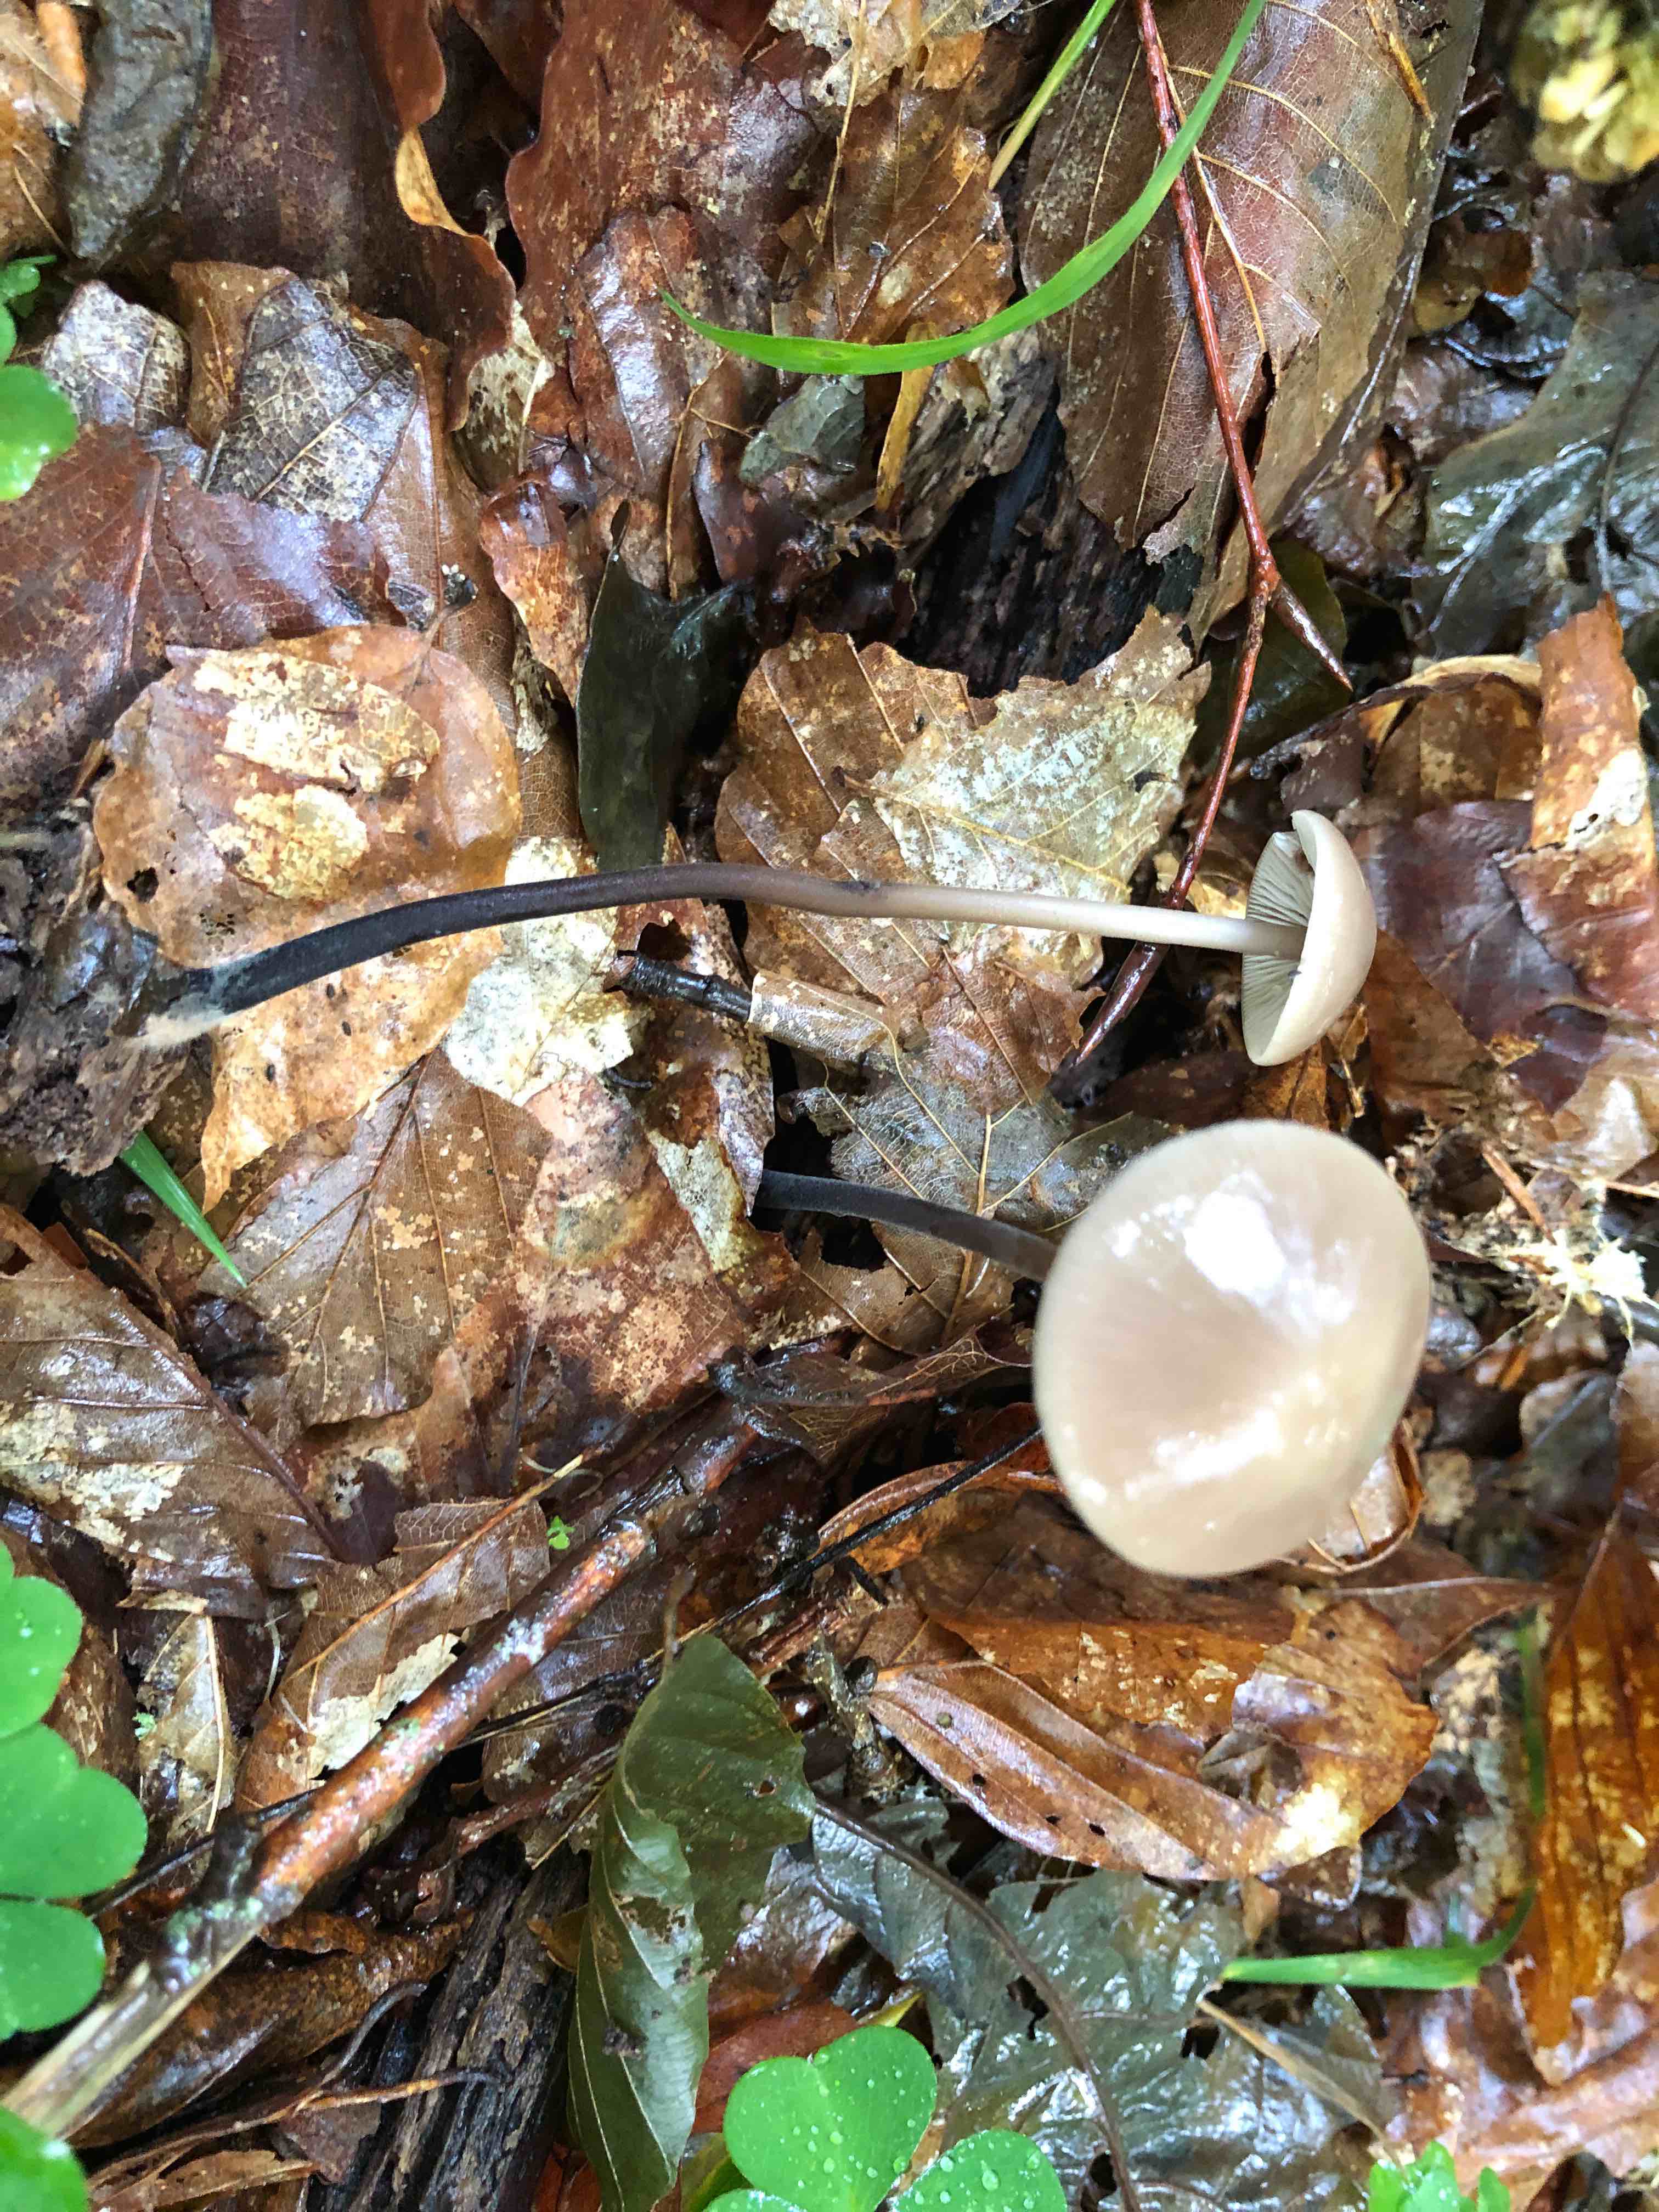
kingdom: Fungi
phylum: Basidiomycota
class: Agaricomycetes
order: Agaricales
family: Omphalotaceae
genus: Mycetinis
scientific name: Mycetinis alliaceus
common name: stor løghat
